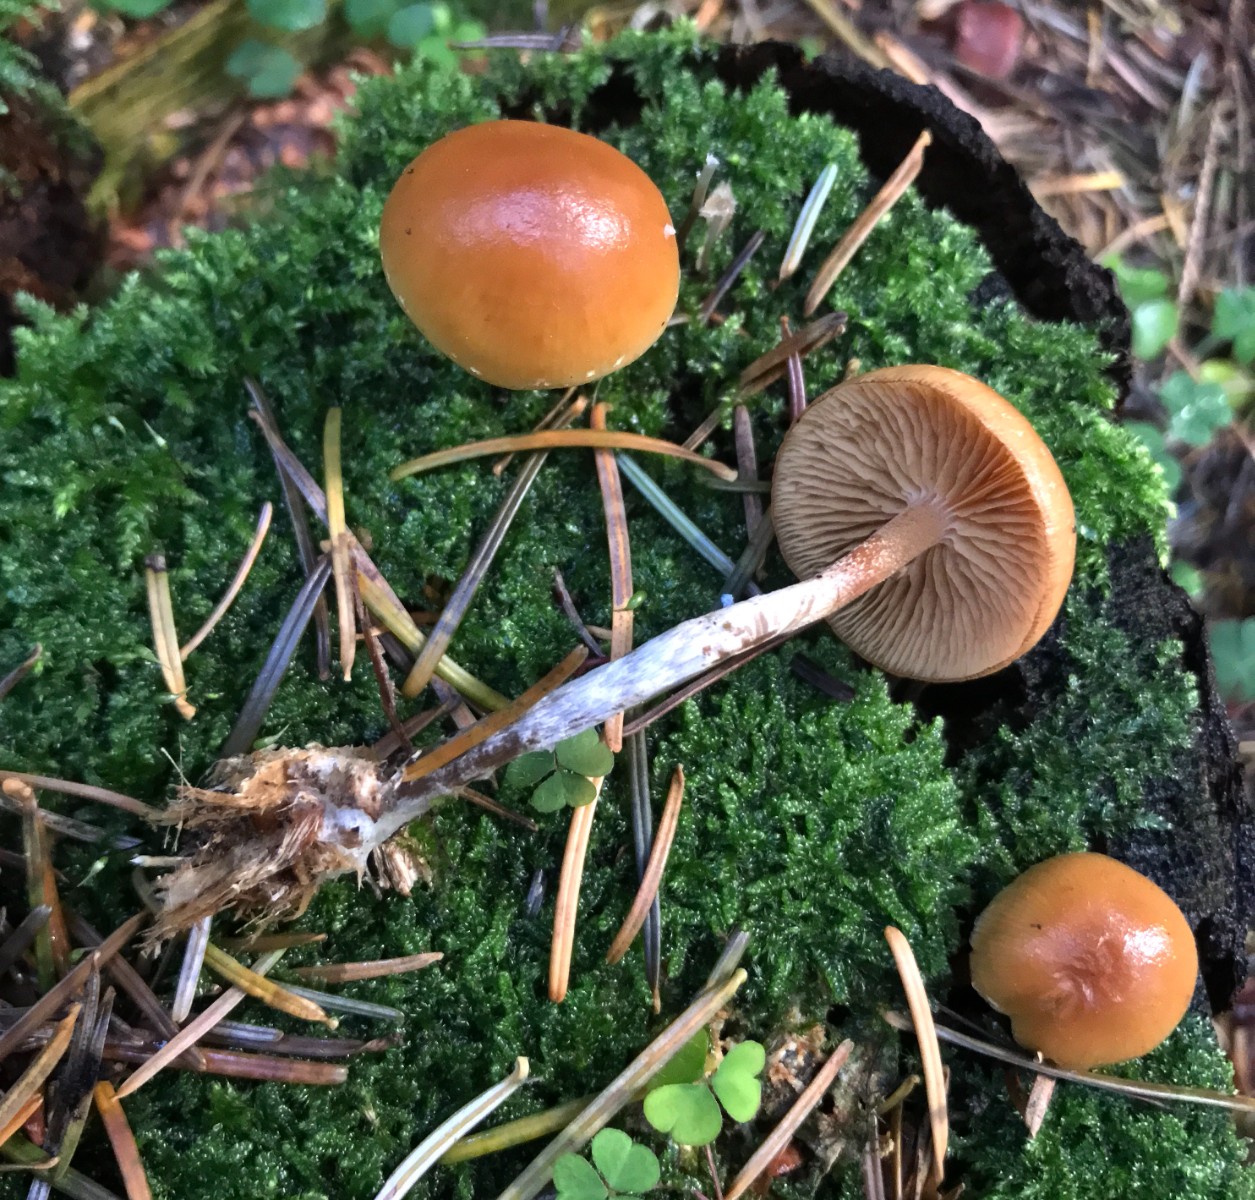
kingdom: Fungi
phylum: Basidiomycota
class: Agaricomycetes
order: Agaricales
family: Hymenogastraceae
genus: Galerina
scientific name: Galerina sideroides
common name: træflis-hjelmhat
